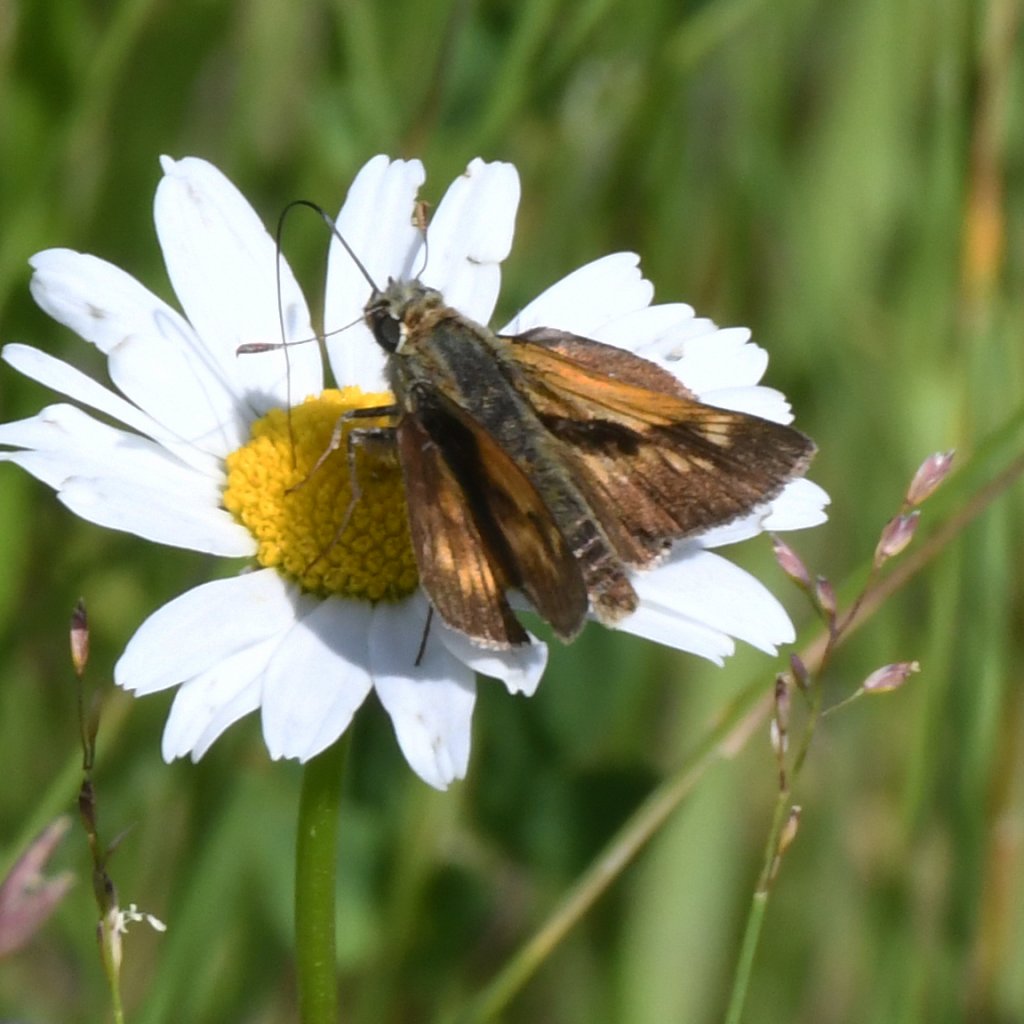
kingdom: Animalia
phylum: Arthropoda
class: Insecta
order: Lepidoptera
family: Hesperiidae
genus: Polites
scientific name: Polites
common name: Long Dash Skipper
